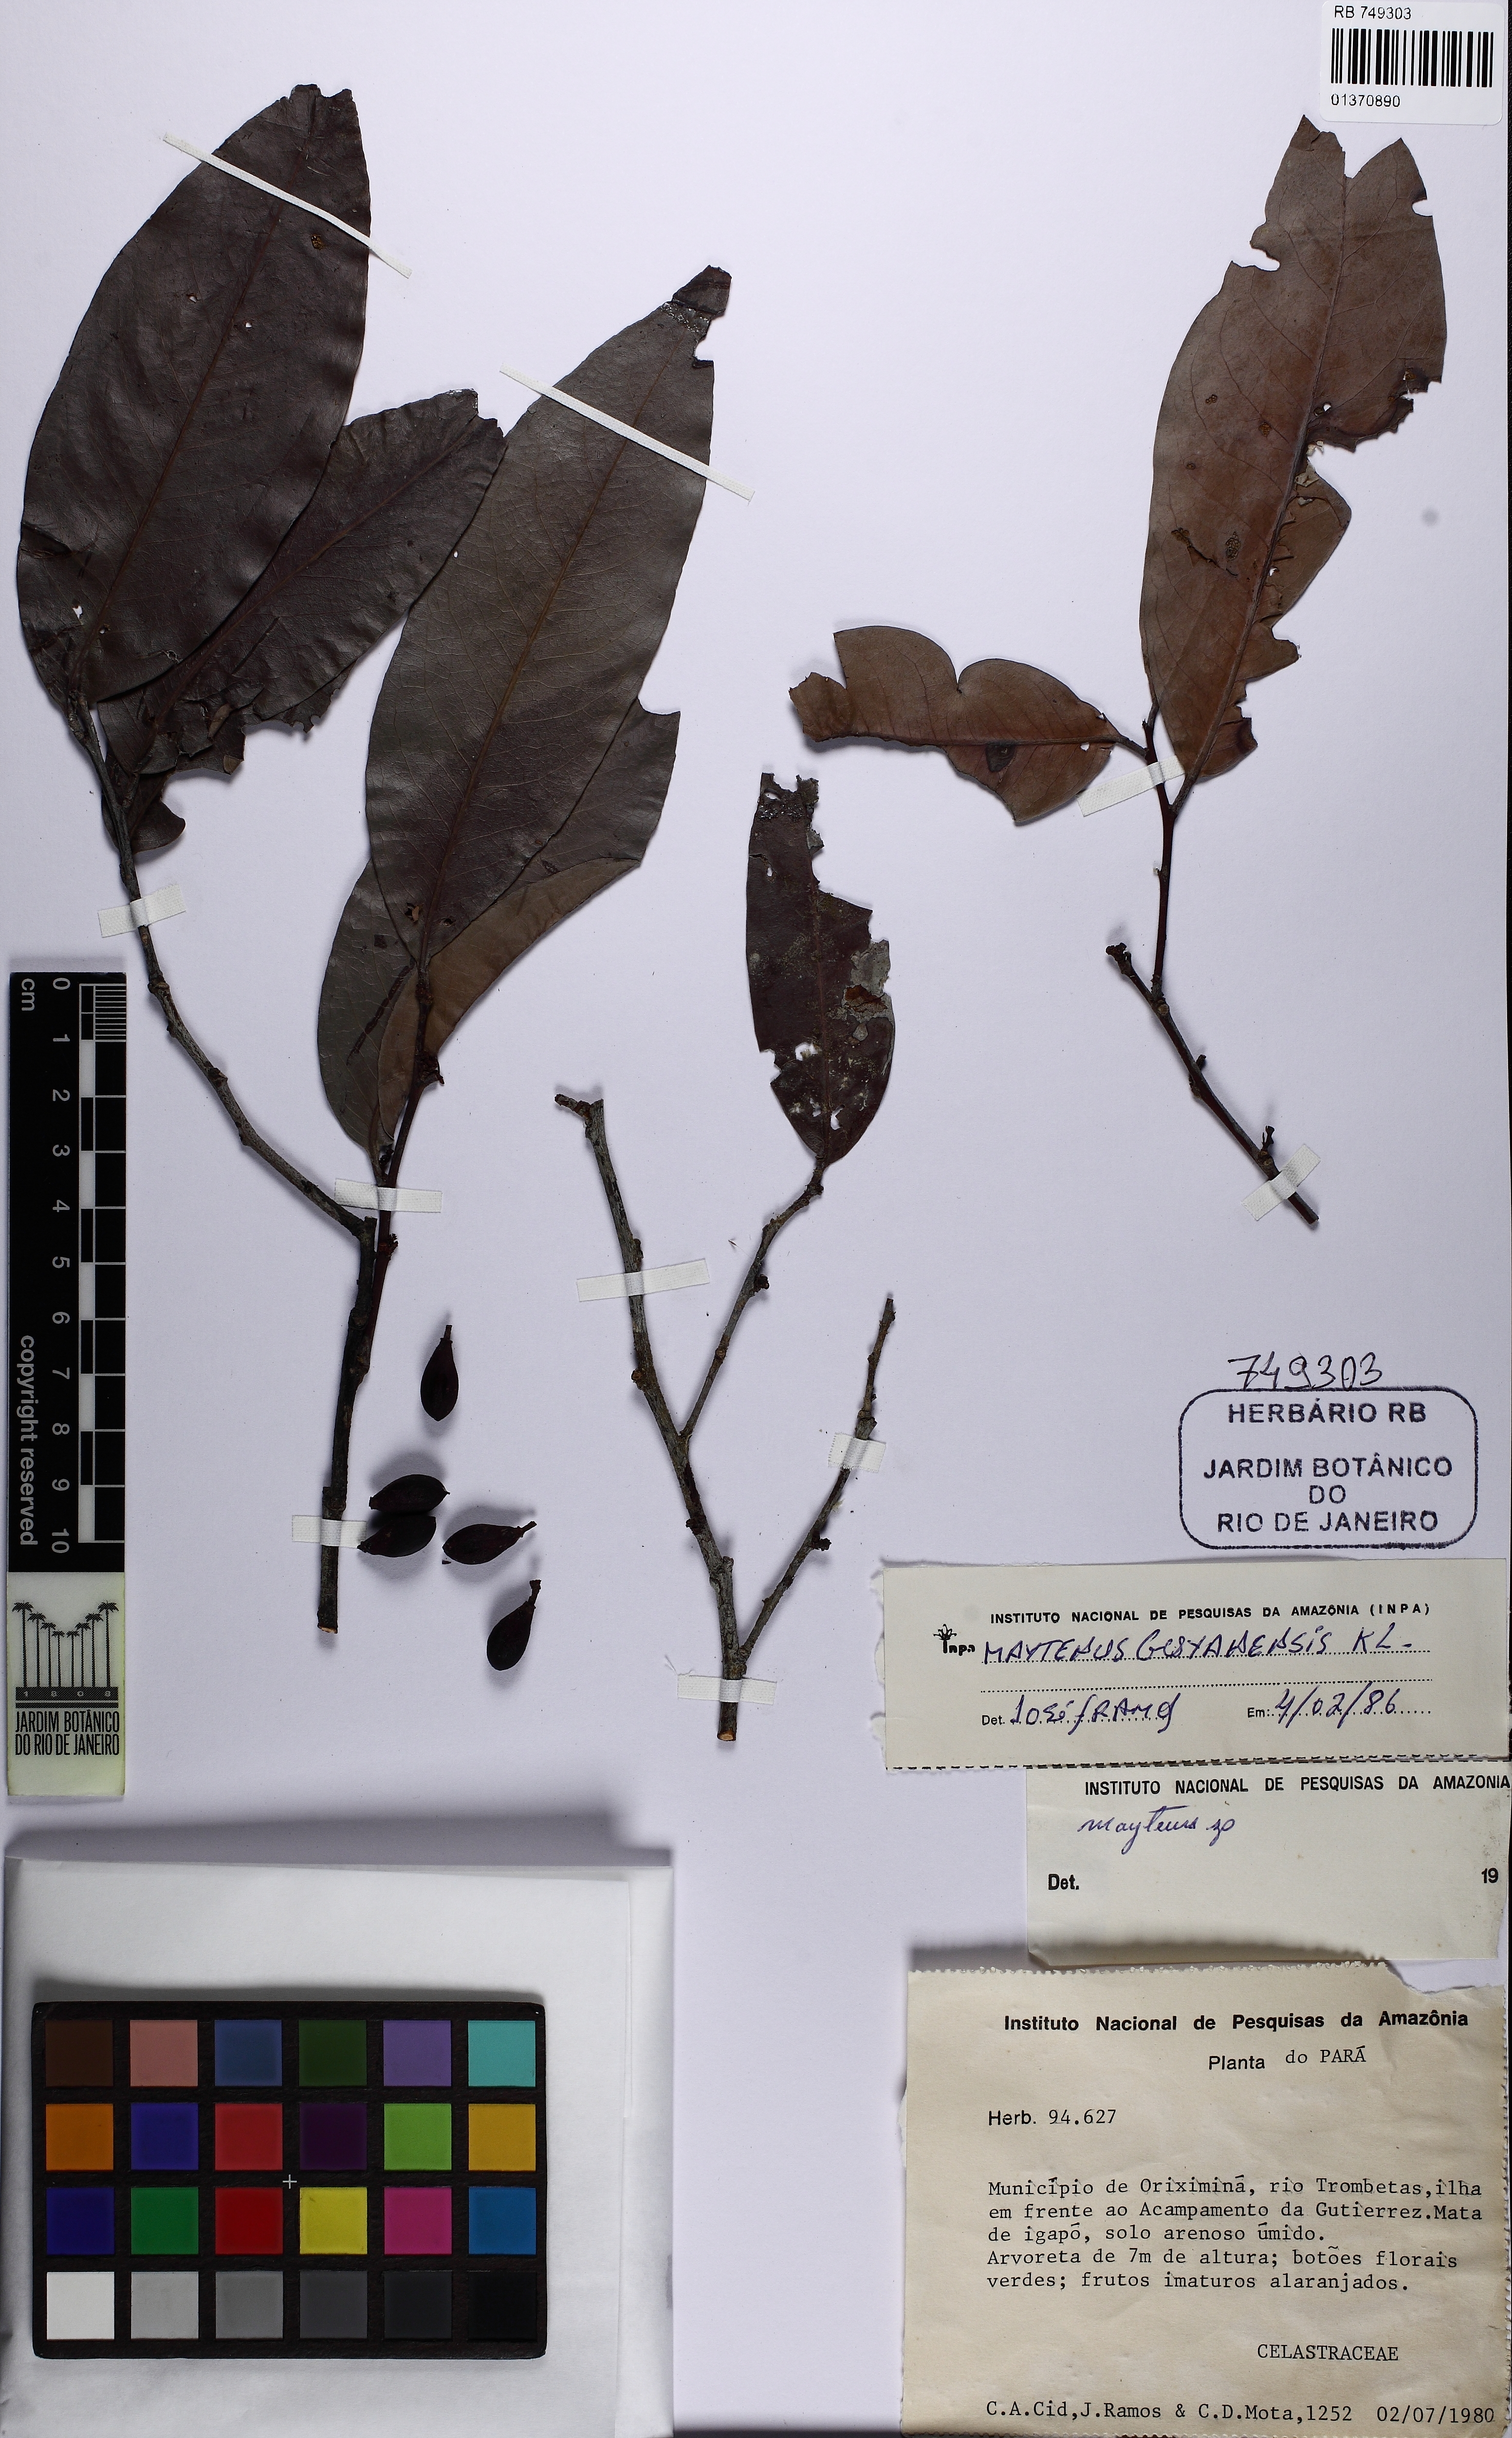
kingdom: Plantae
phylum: Tracheophyta
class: Magnoliopsida
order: Celastrales
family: Celastraceae
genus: Monteverdia
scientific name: Monteverdia guyanensis
